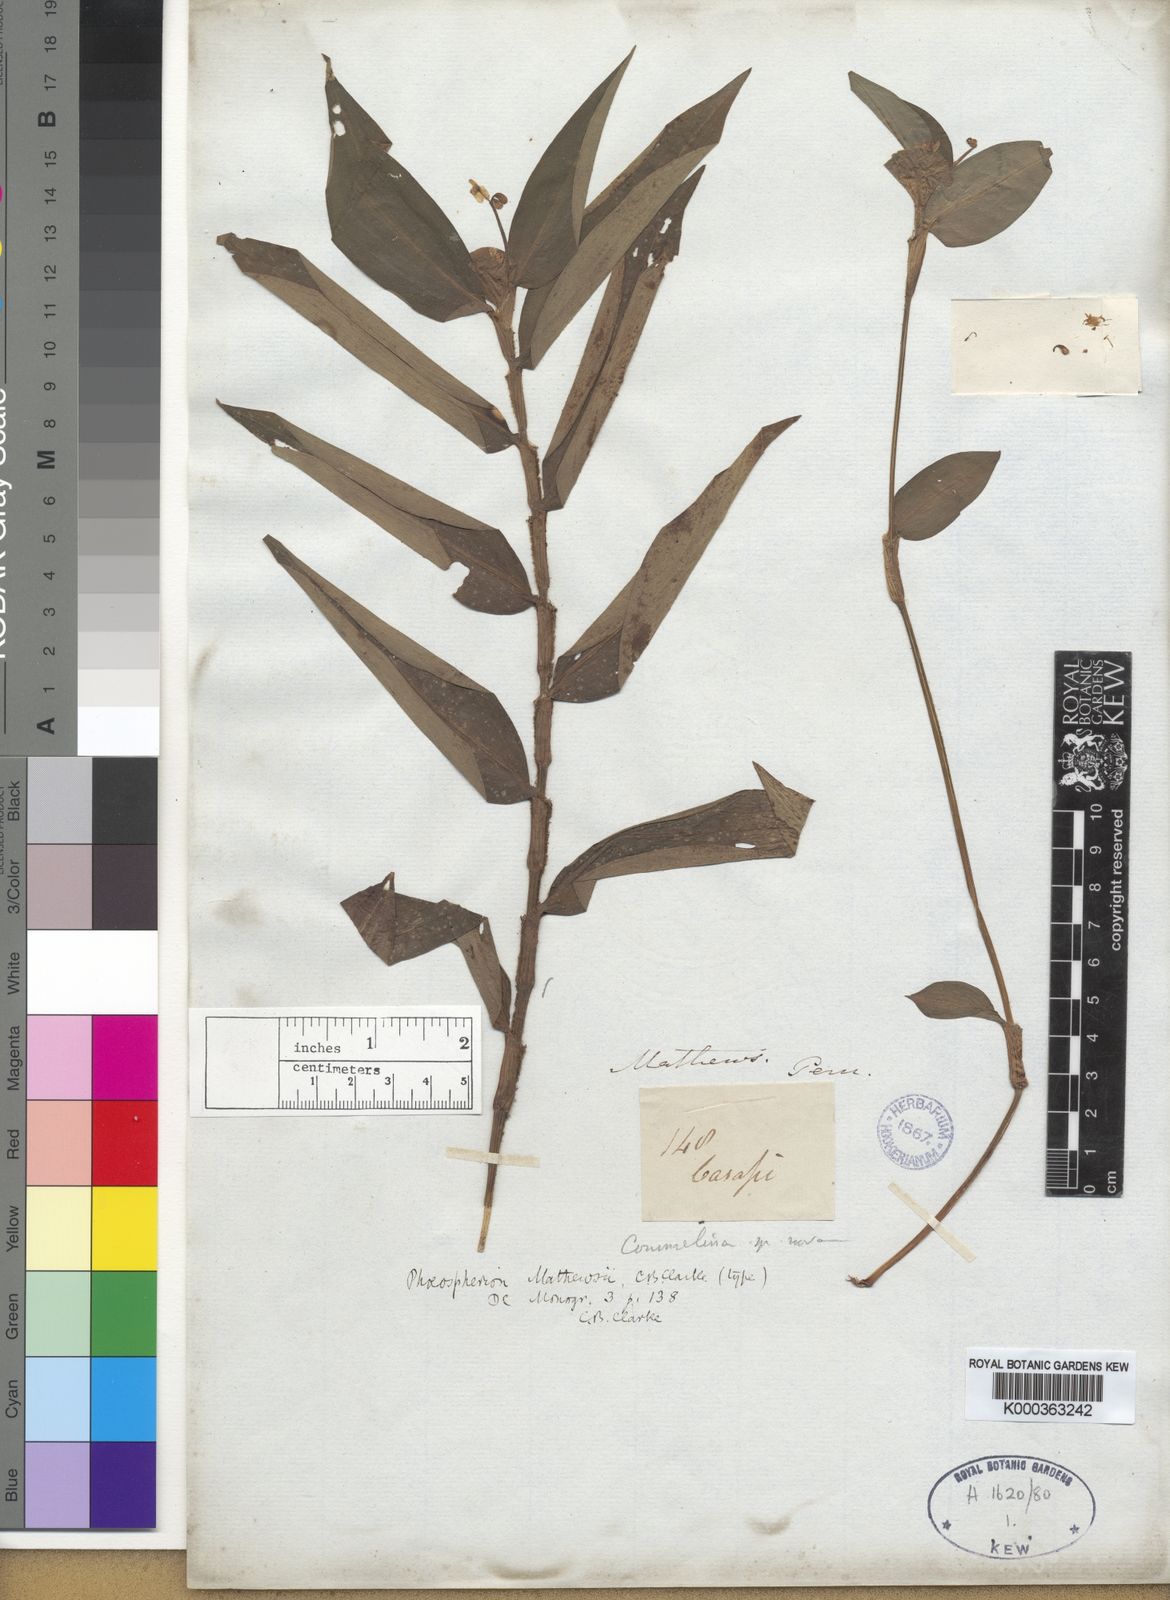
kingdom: Plantae
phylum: Tracheophyta
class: Liliopsida
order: Commelinales
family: Commelinaceae
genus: Commelina
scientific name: Commelina rufipes
